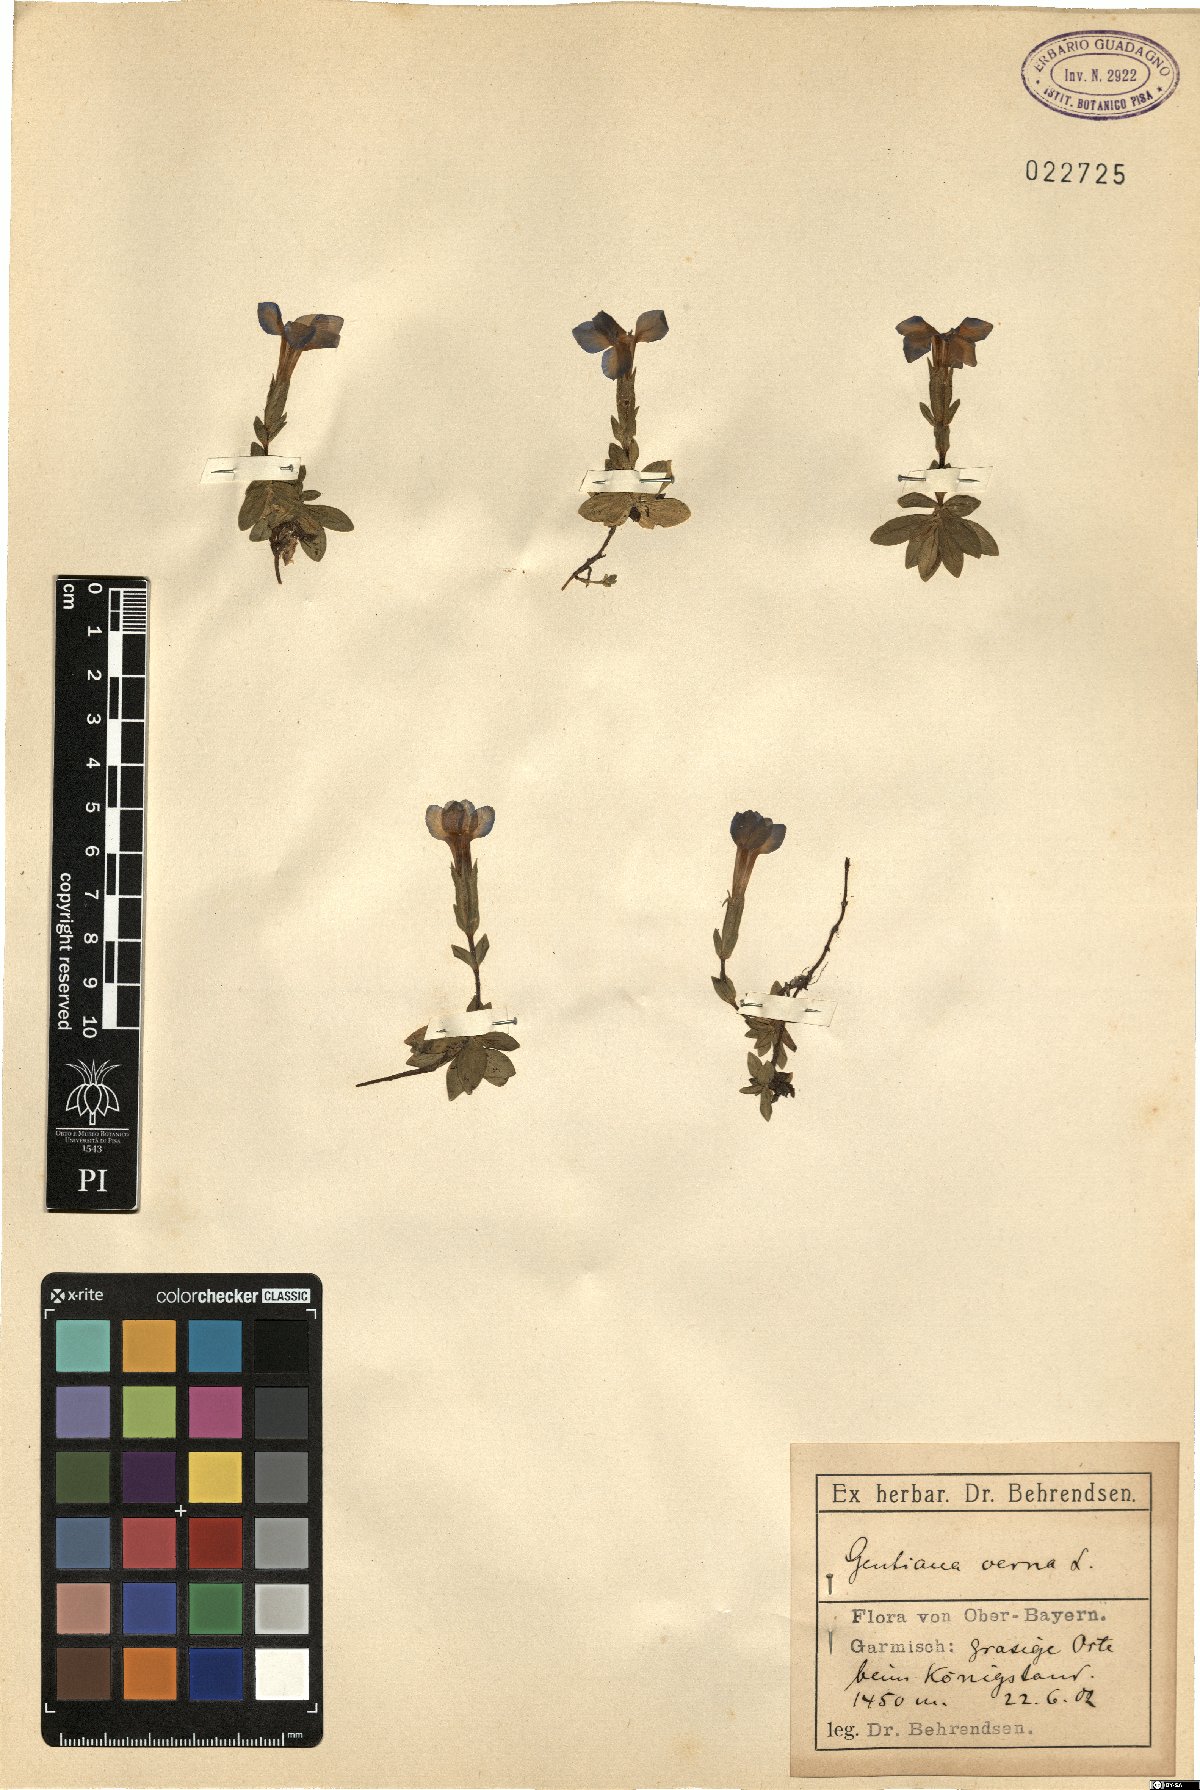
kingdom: Plantae
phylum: Tracheophyta
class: Magnoliopsida
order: Gentianales
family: Gentianaceae
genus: Gentiana
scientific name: Gentiana verna
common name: Spring gentian
